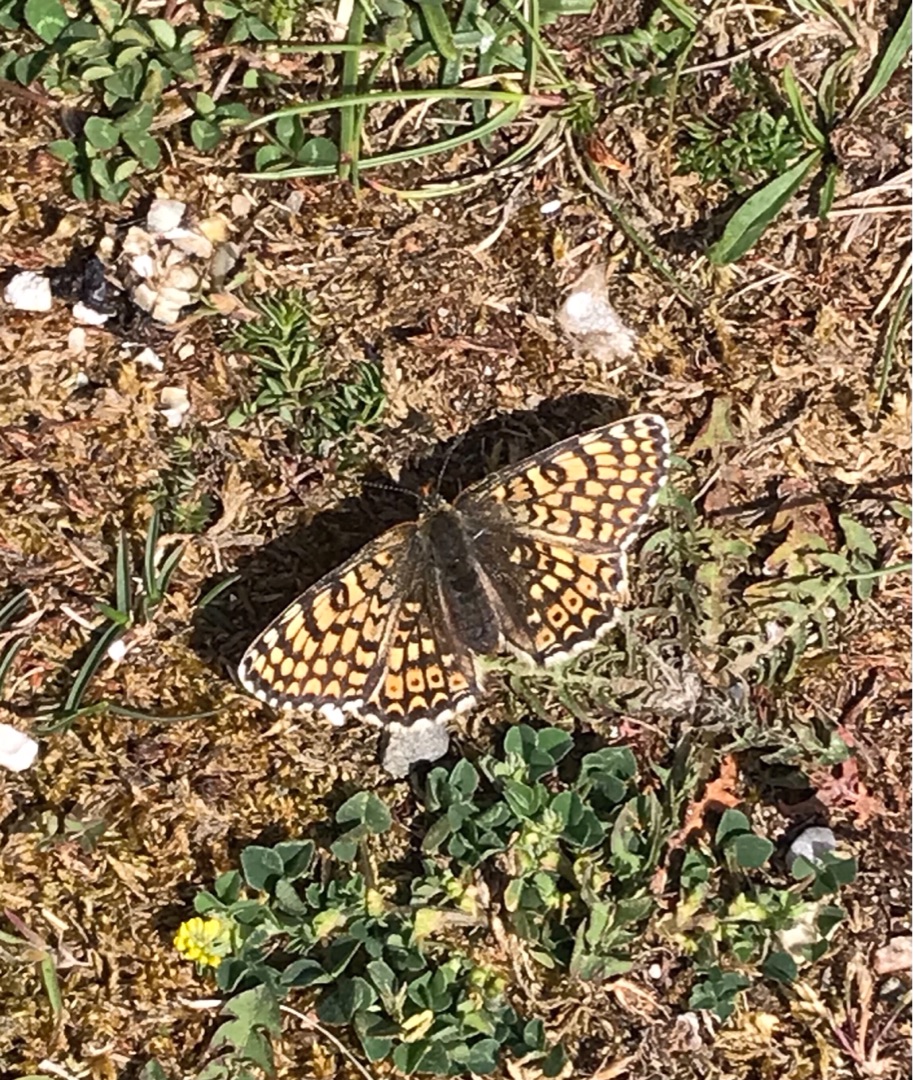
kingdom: Animalia
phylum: Arthropoda
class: Insecta
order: Lepidoptera
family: Nymphalidae
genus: Melitaea
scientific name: Melitaea cinxia
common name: Okkergul pletvinge
